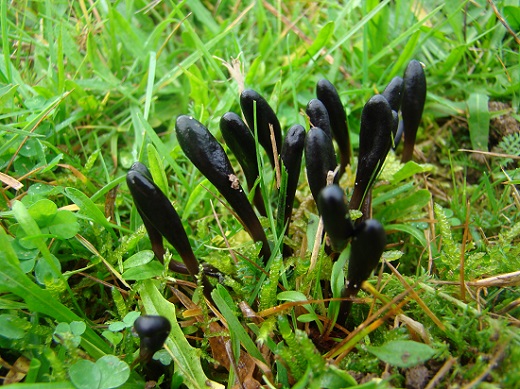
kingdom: Fungi
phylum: Ascomycota
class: Geoglossomycetes
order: Geoglossales
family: Geoglossaceae
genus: Glutinoglossum
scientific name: Glutinoglossum glutinosum
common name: slimet jordtunge
